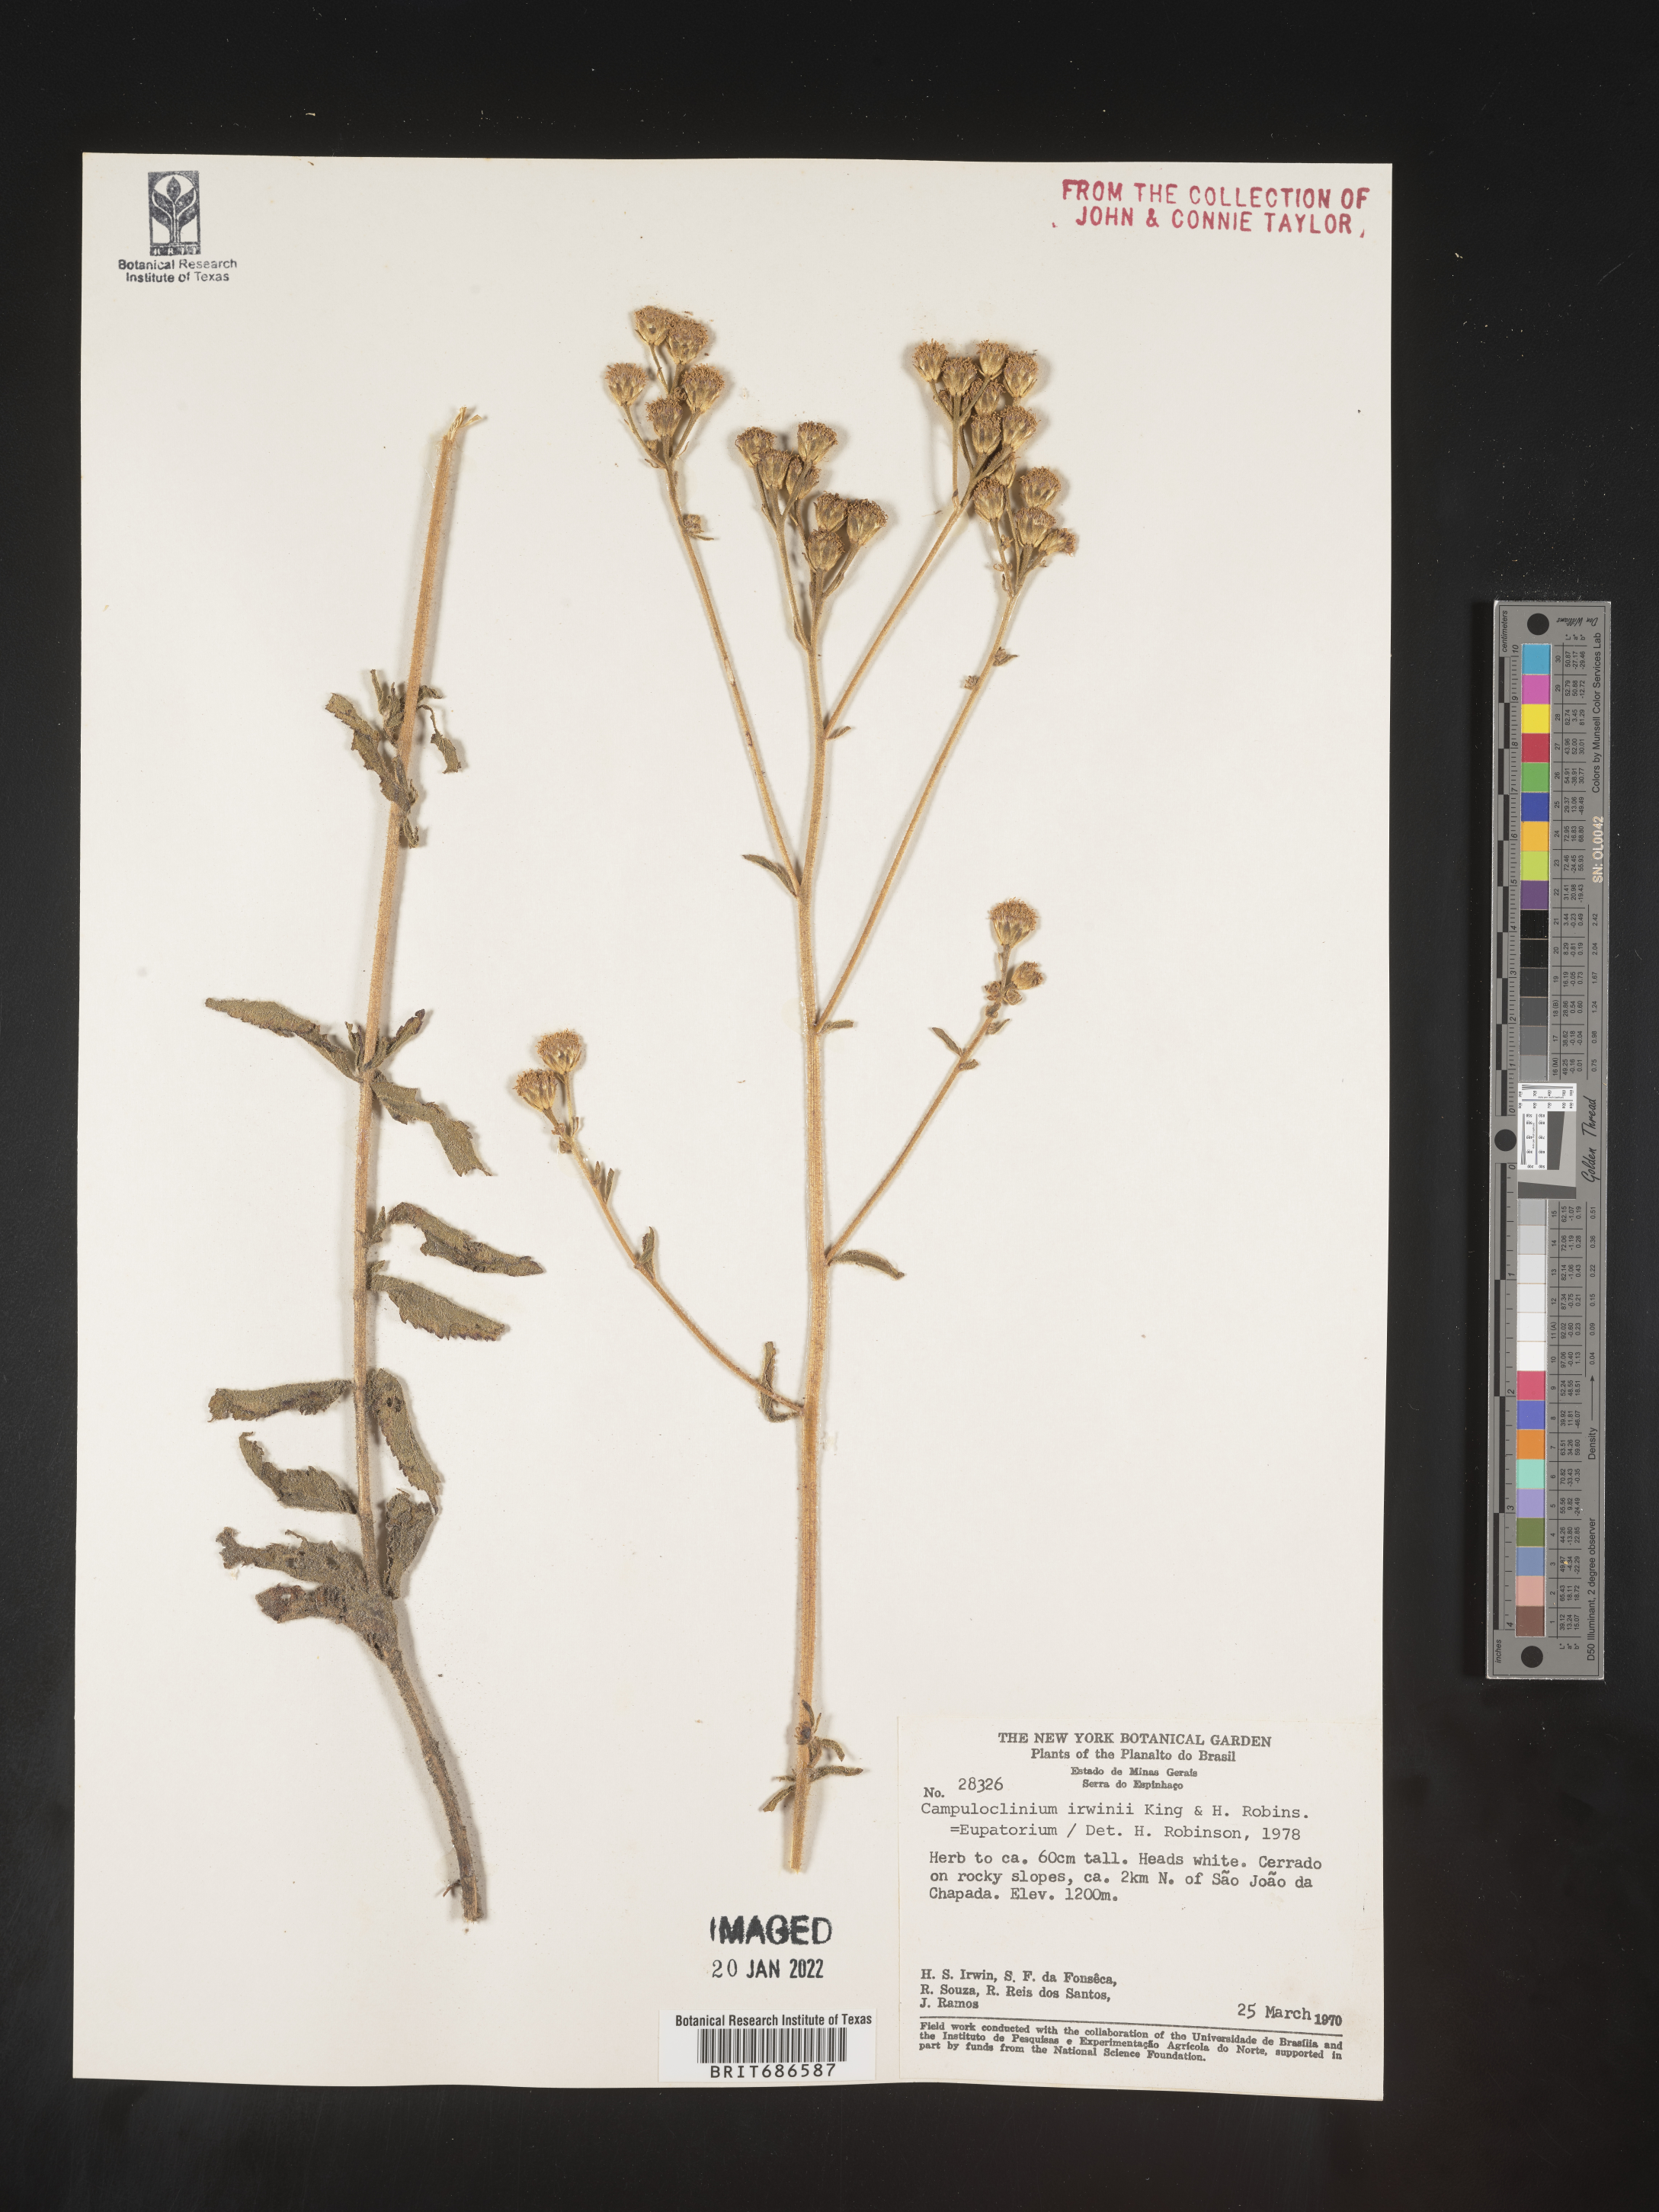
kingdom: Plantae
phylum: Tracheophyta
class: Magnoliopsida
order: Asterales
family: Asteraceae
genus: Campuloclinium
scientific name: Campuloclinium
